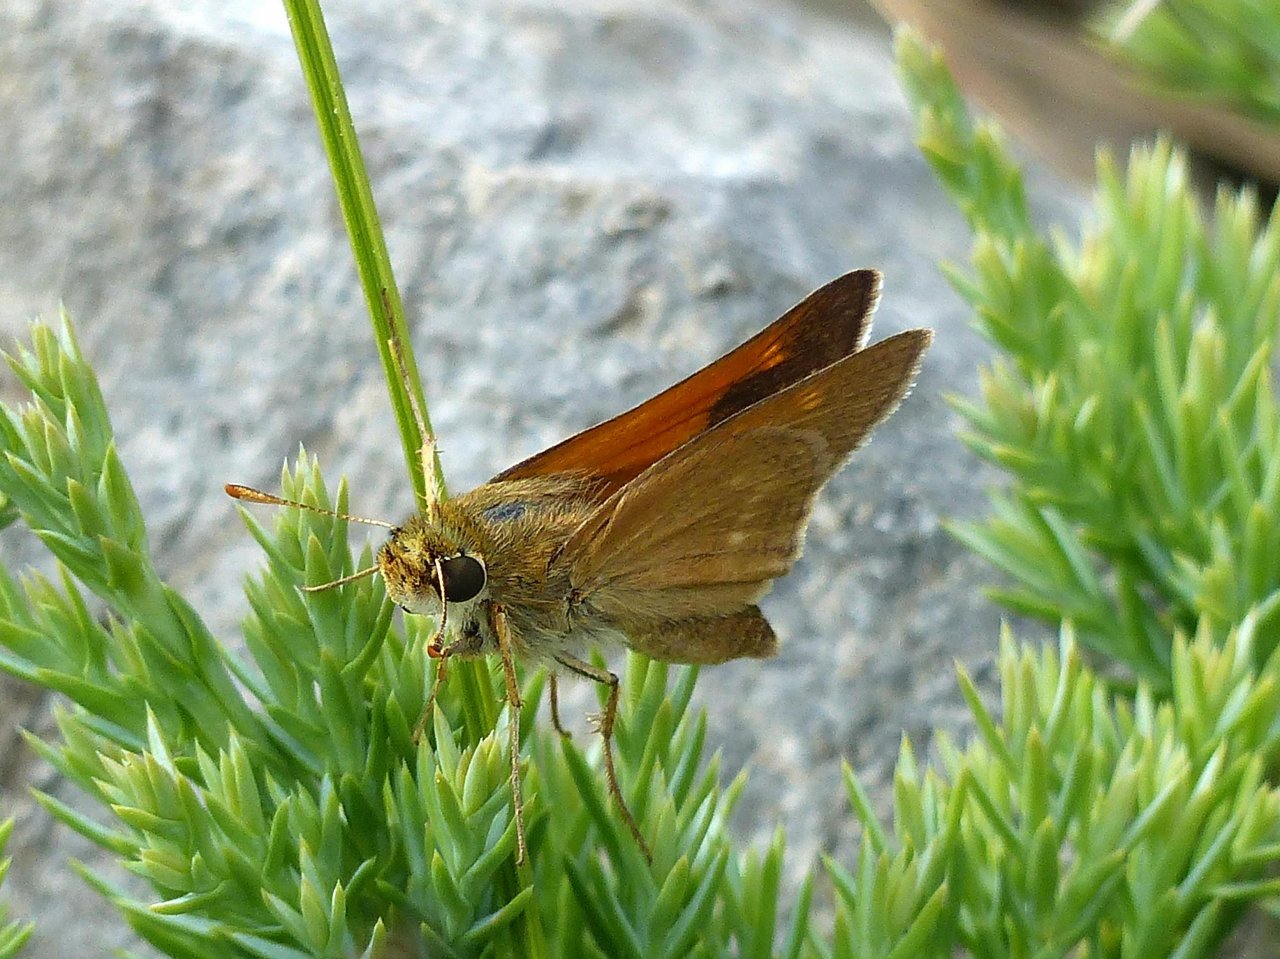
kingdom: Animalia
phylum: Arthropoda
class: Insecta
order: Lepidoptera
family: Hesperiidae
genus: Polites
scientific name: Polites
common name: Crossline Skipper
